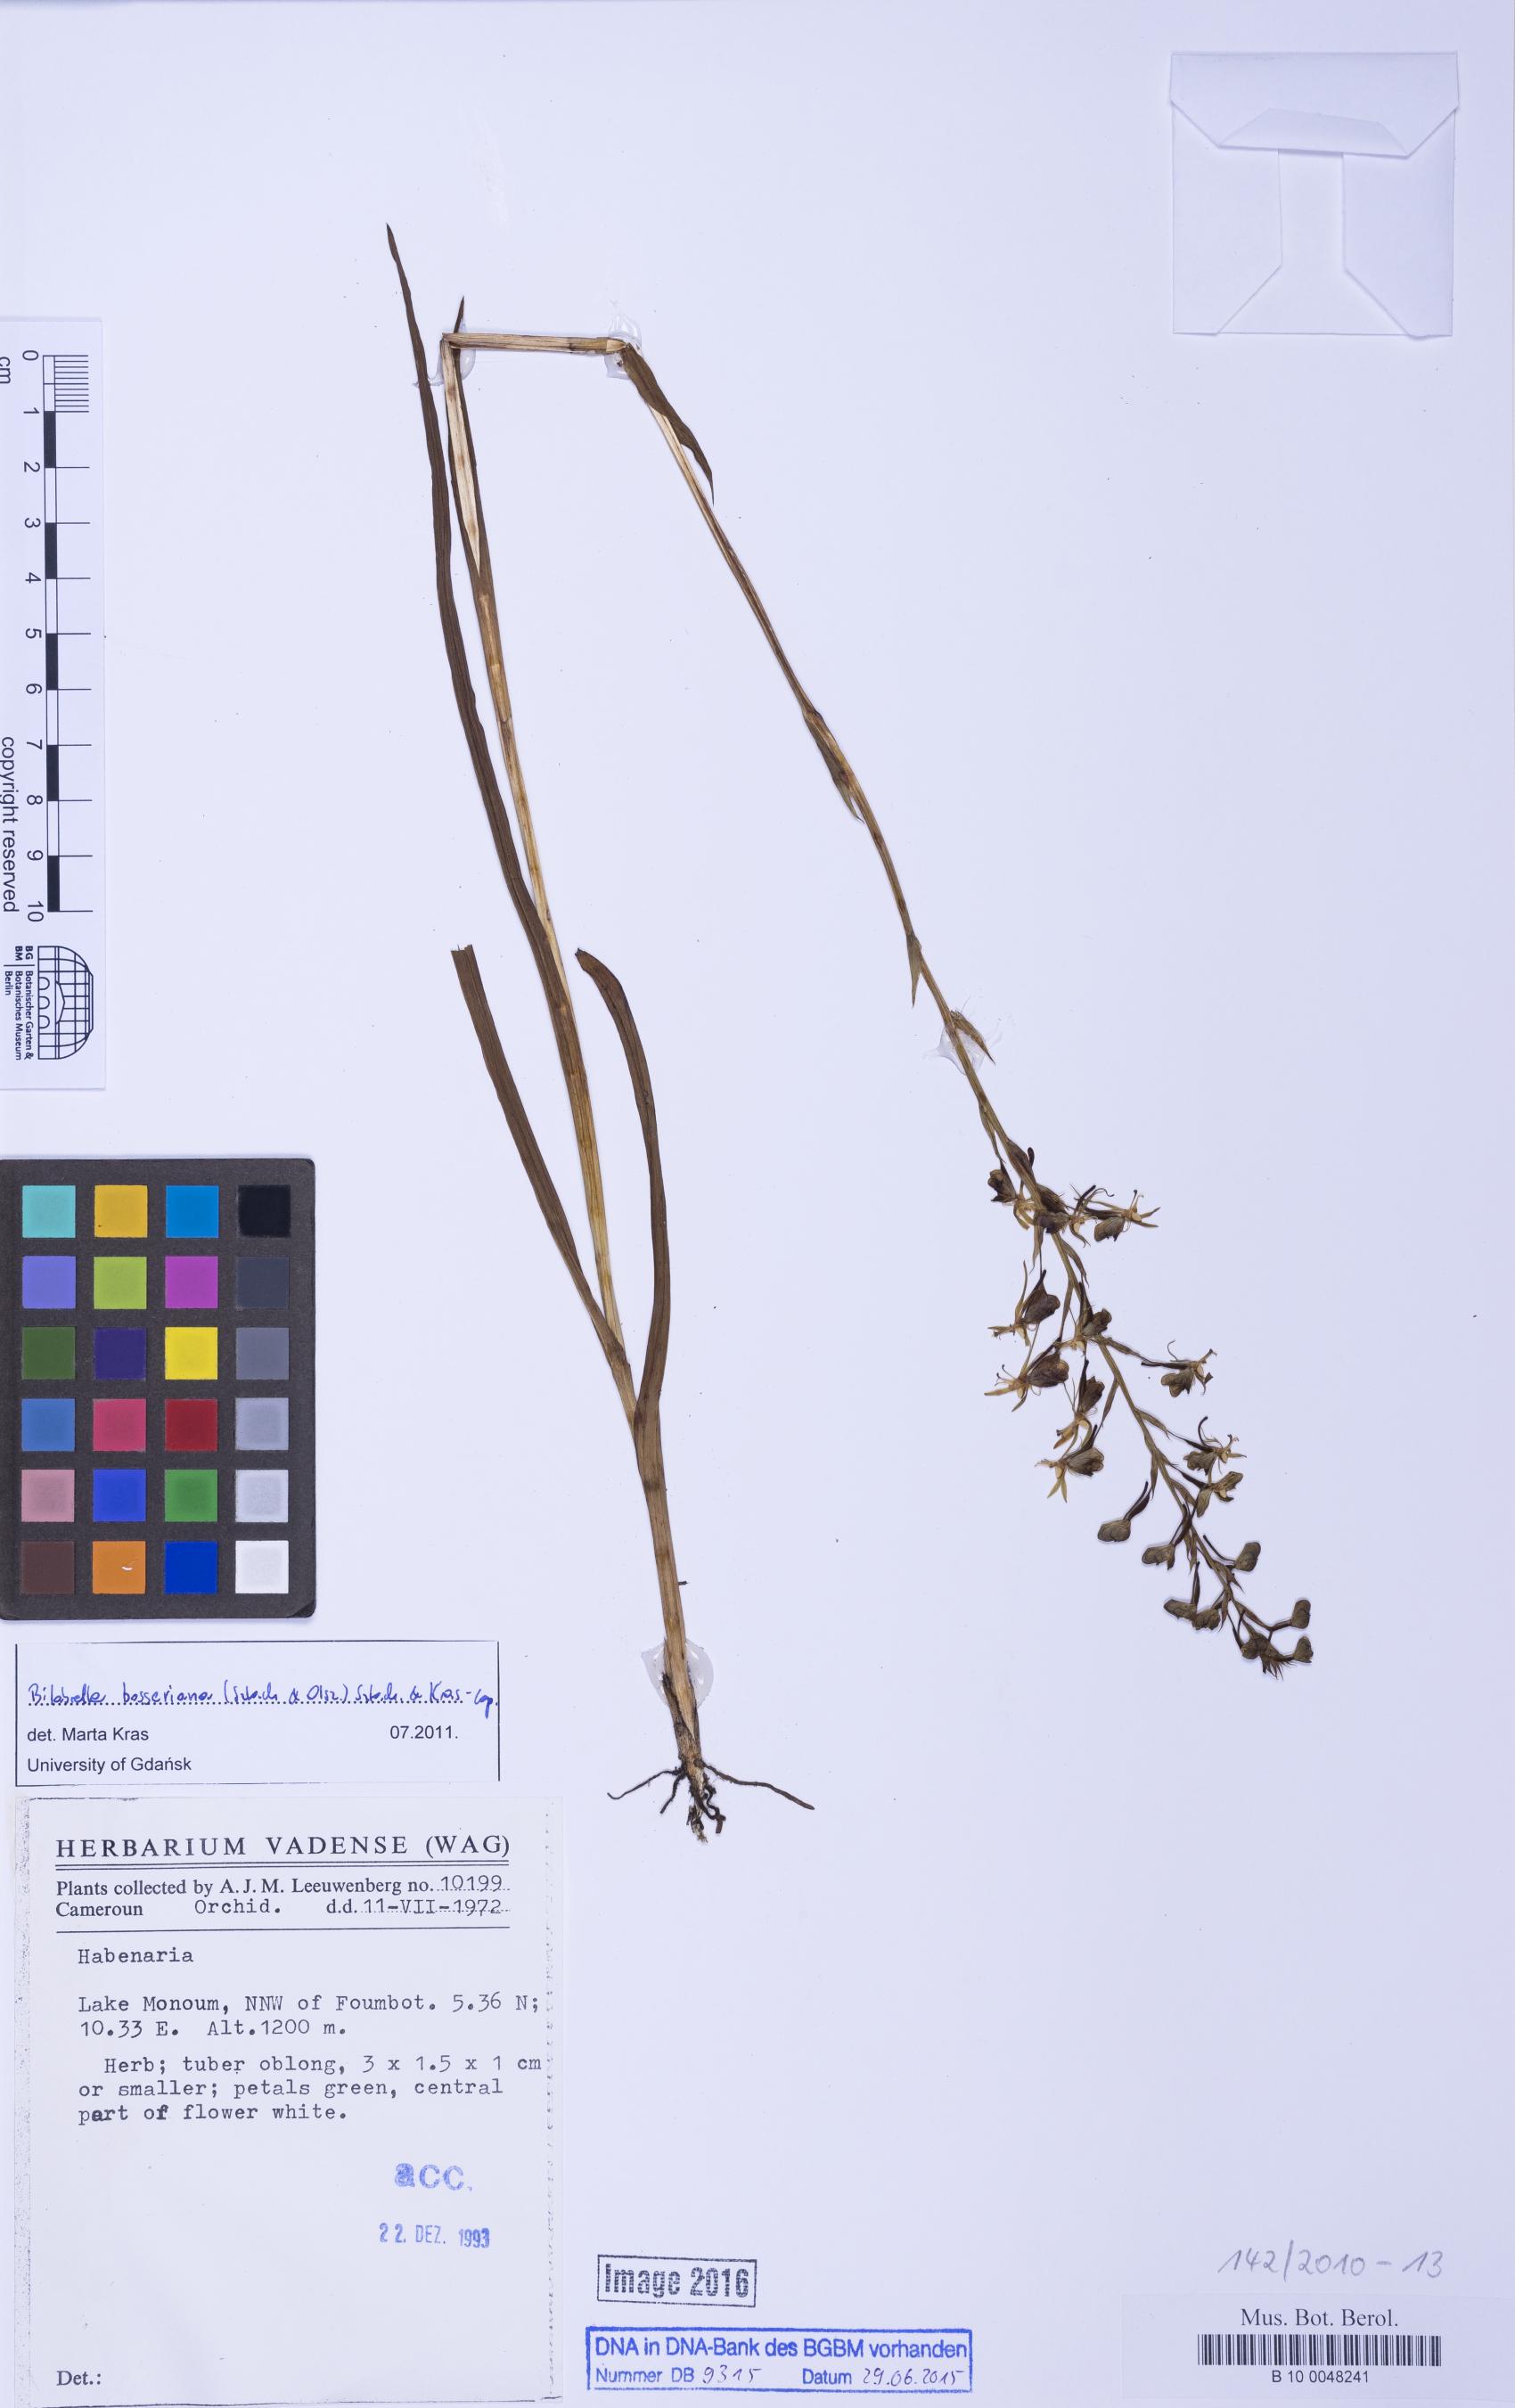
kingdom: Plantae
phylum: Tracheophyta
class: Liliopsida
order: Asparagales
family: Orchidaceae
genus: Habenaria
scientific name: Habenaria bosseriana
